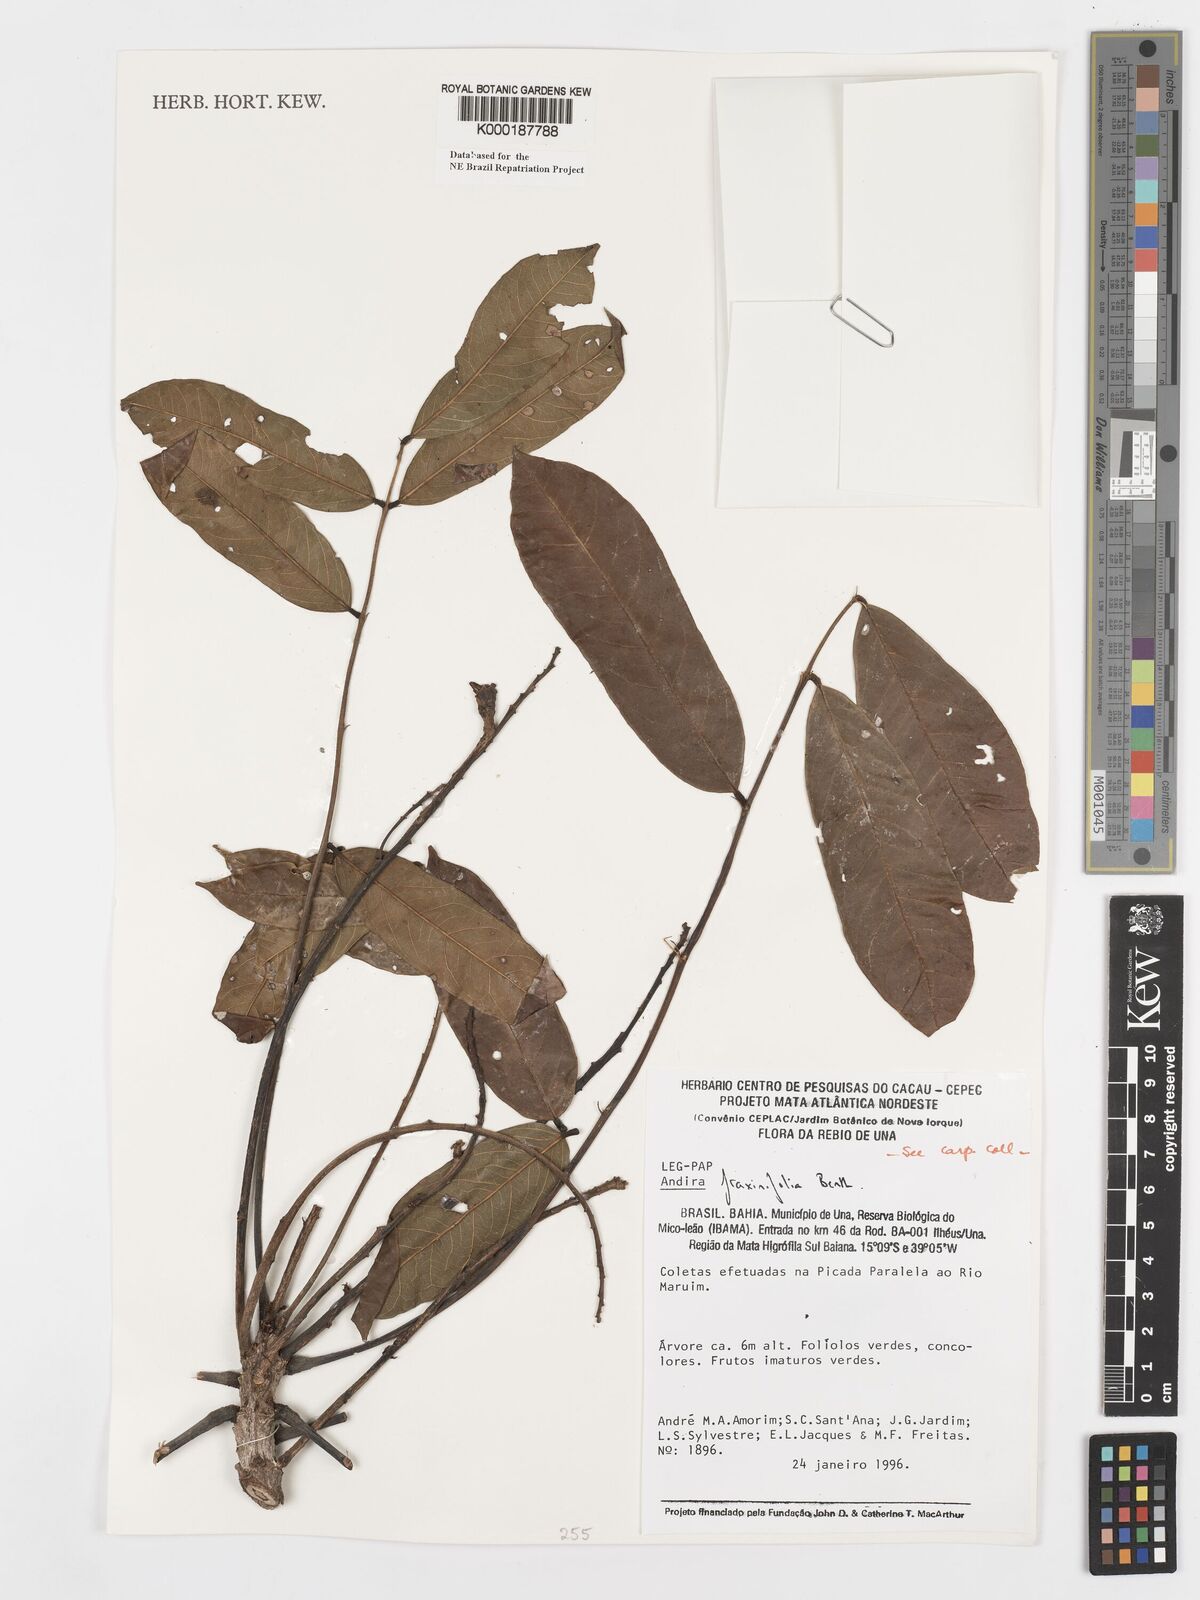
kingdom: Plantae
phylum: Tracheophyta
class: Magnoliopsida
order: Fabales
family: Fabaceae
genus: Andira
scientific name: Andira fraxinifolia
